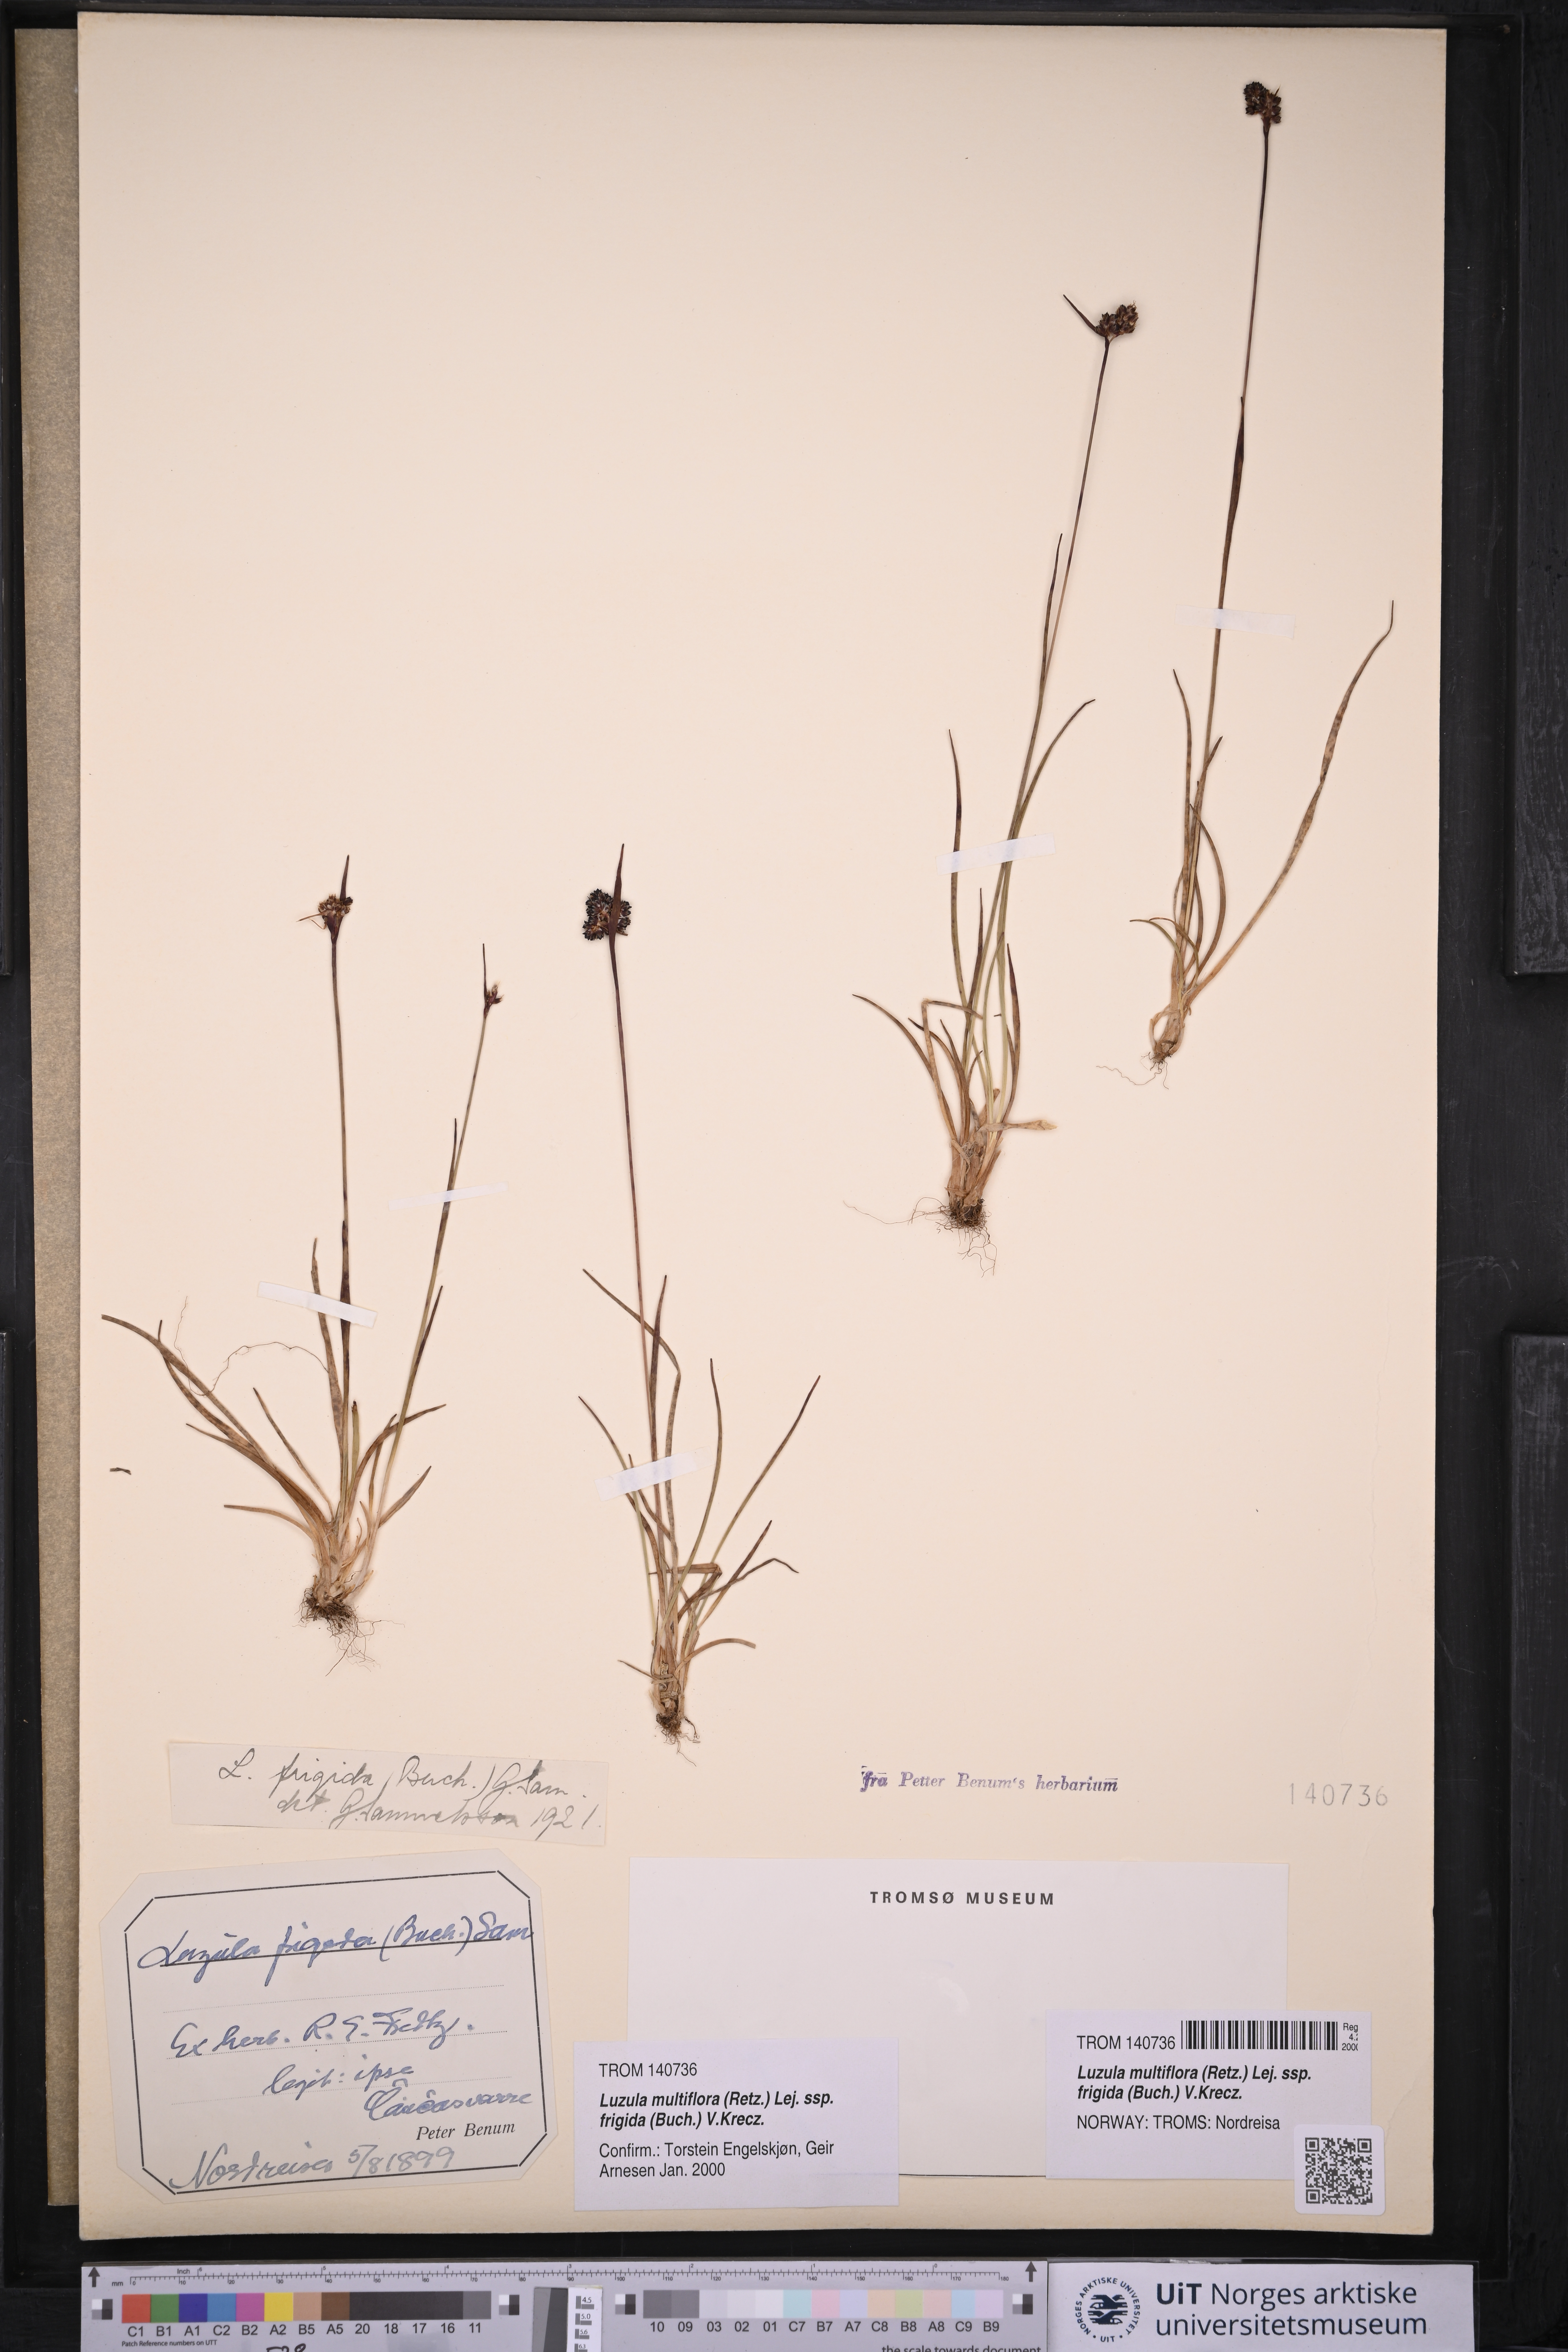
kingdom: Plantae
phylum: Tracheophyta
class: Liliopsida
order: Poales
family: Juncaceae
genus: Luzula
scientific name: Luzula multiflora
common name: Heath wood-rush
